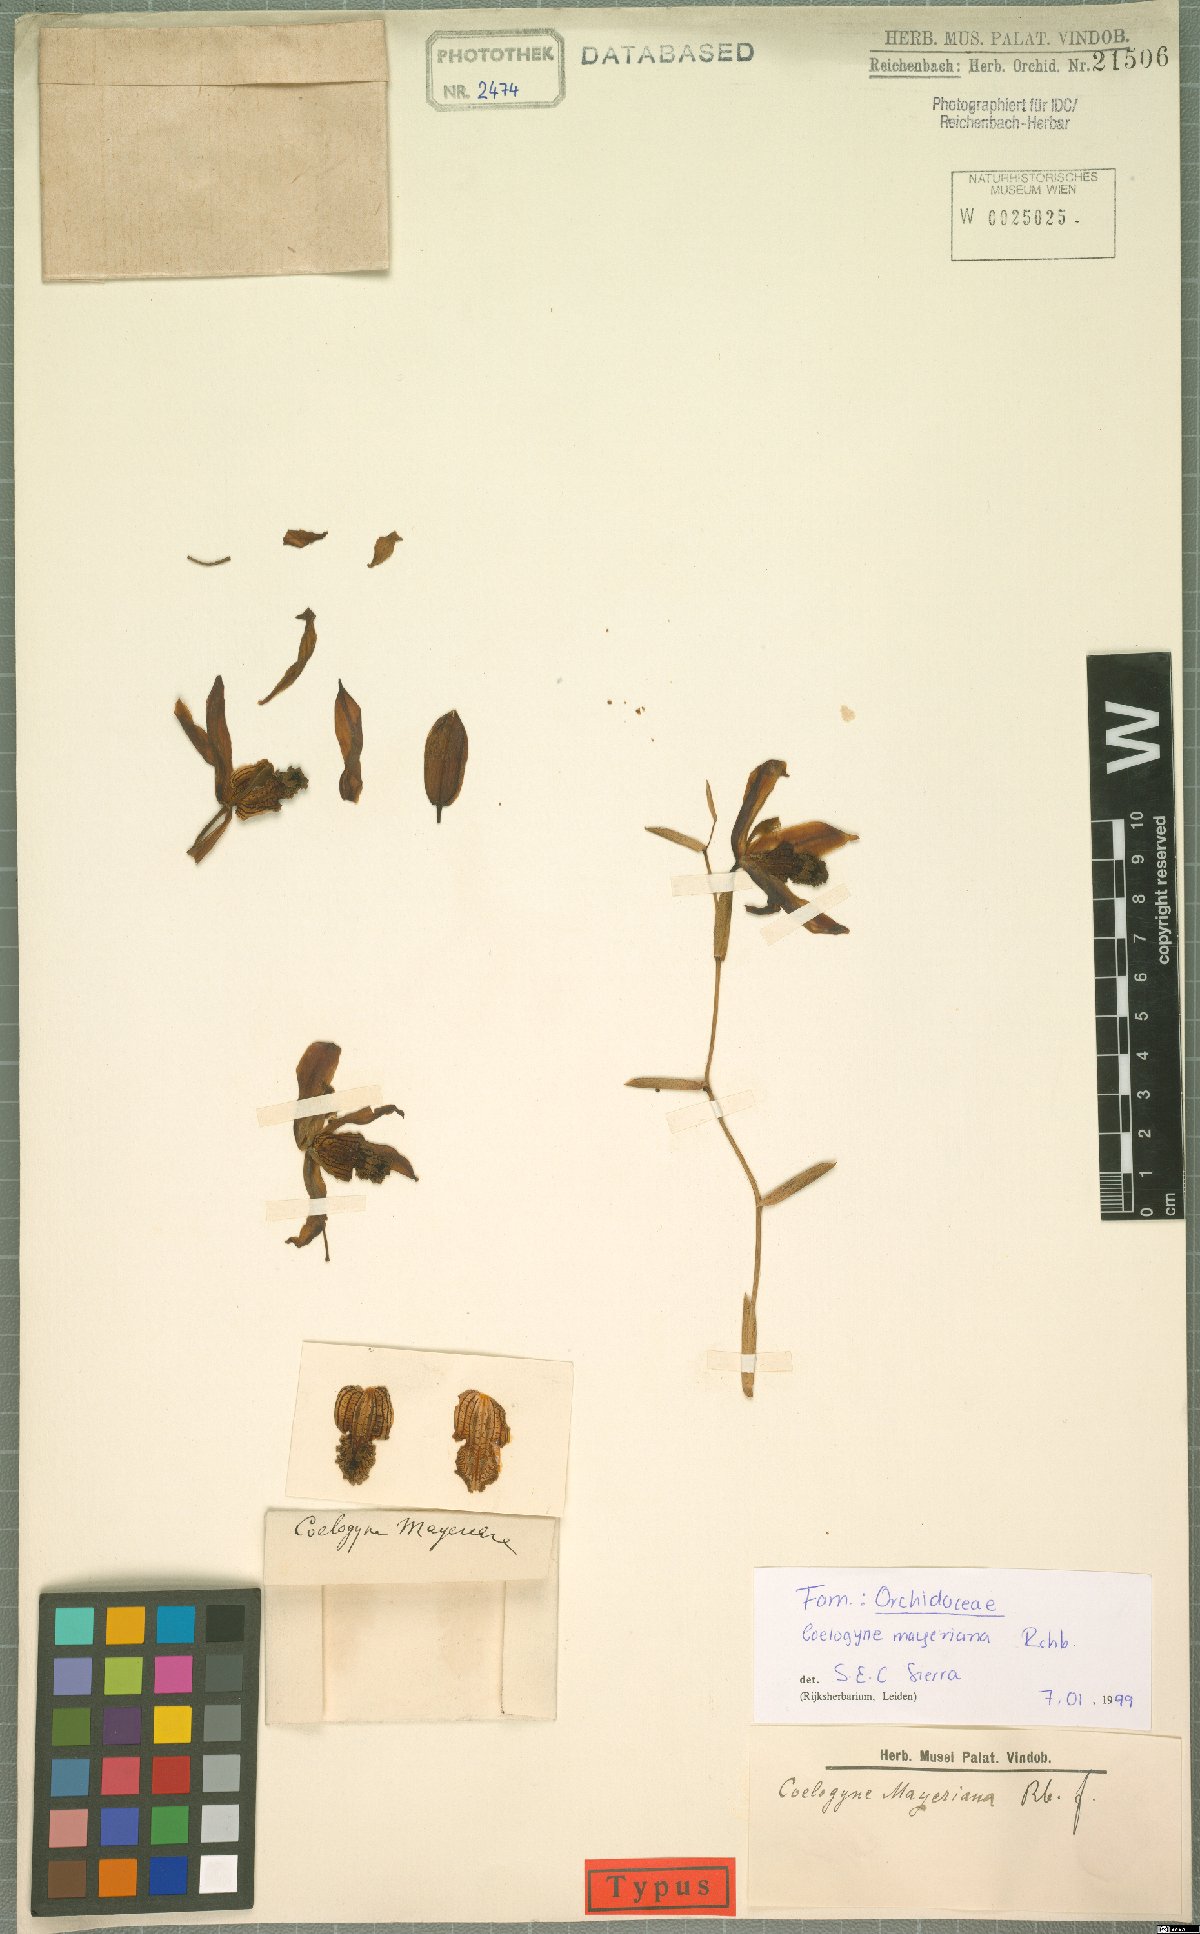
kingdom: Plantae
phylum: Tracheophyta
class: Liliopsida
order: Asparagales
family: Orchidaceae
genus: Coelogyne
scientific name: Coelogyne mayeriana
